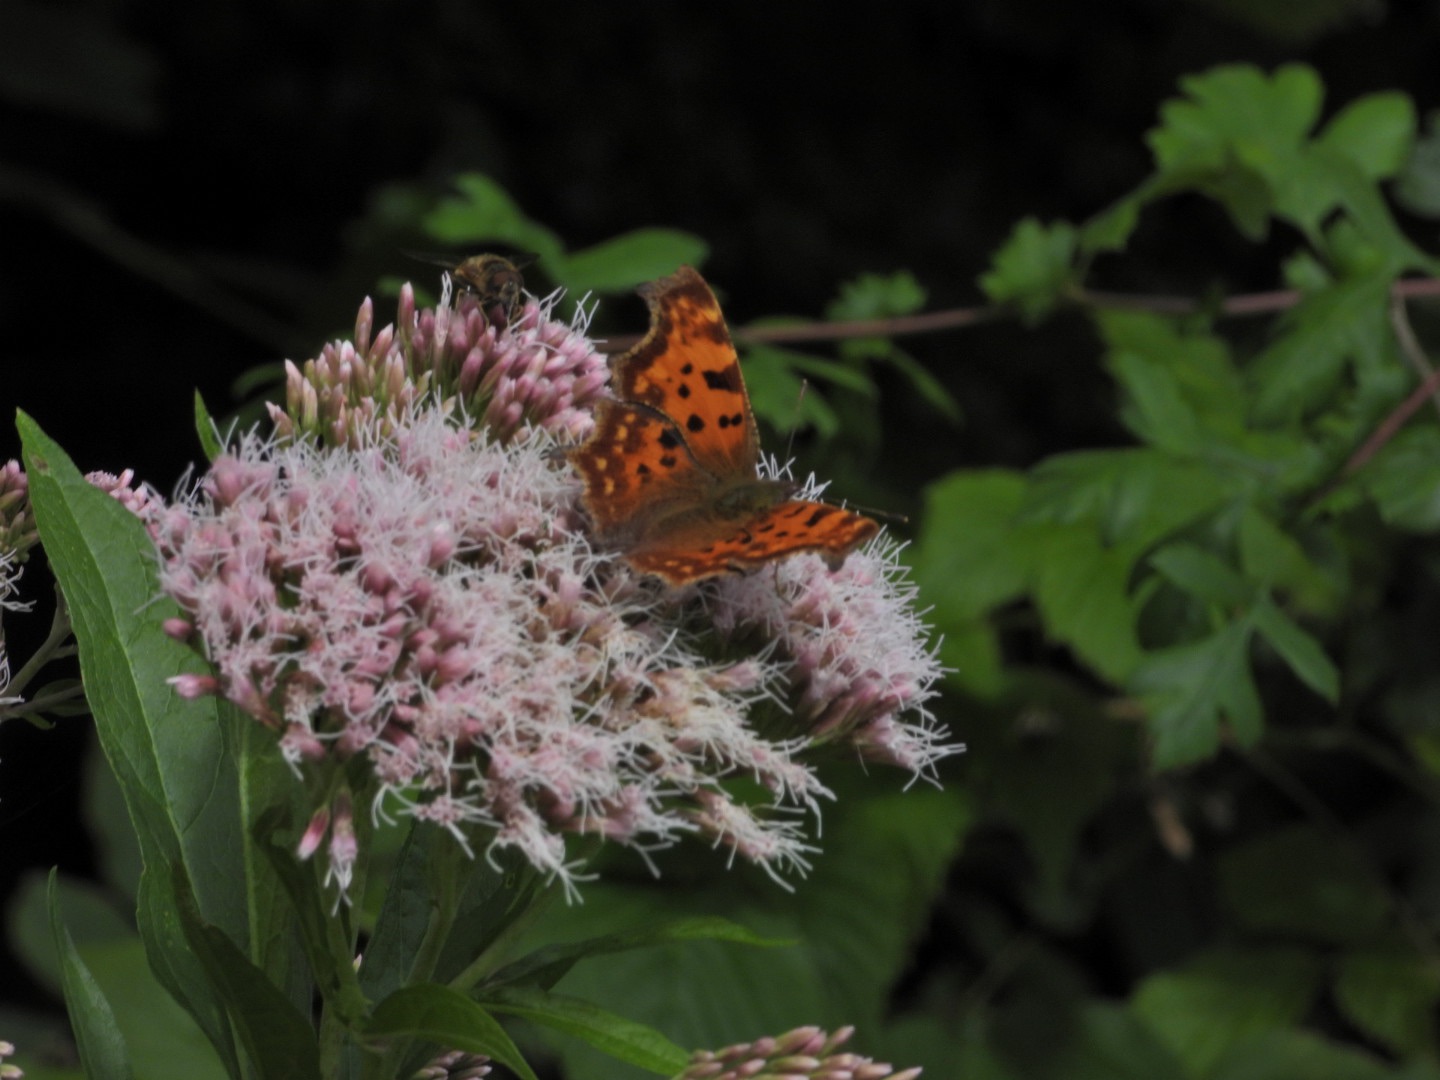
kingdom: Animalia
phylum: Arthropoda
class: Insecta
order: Lepidoptera
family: Nymphalidae
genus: Polygonia
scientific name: Polygonia c-album
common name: Det hvide C
